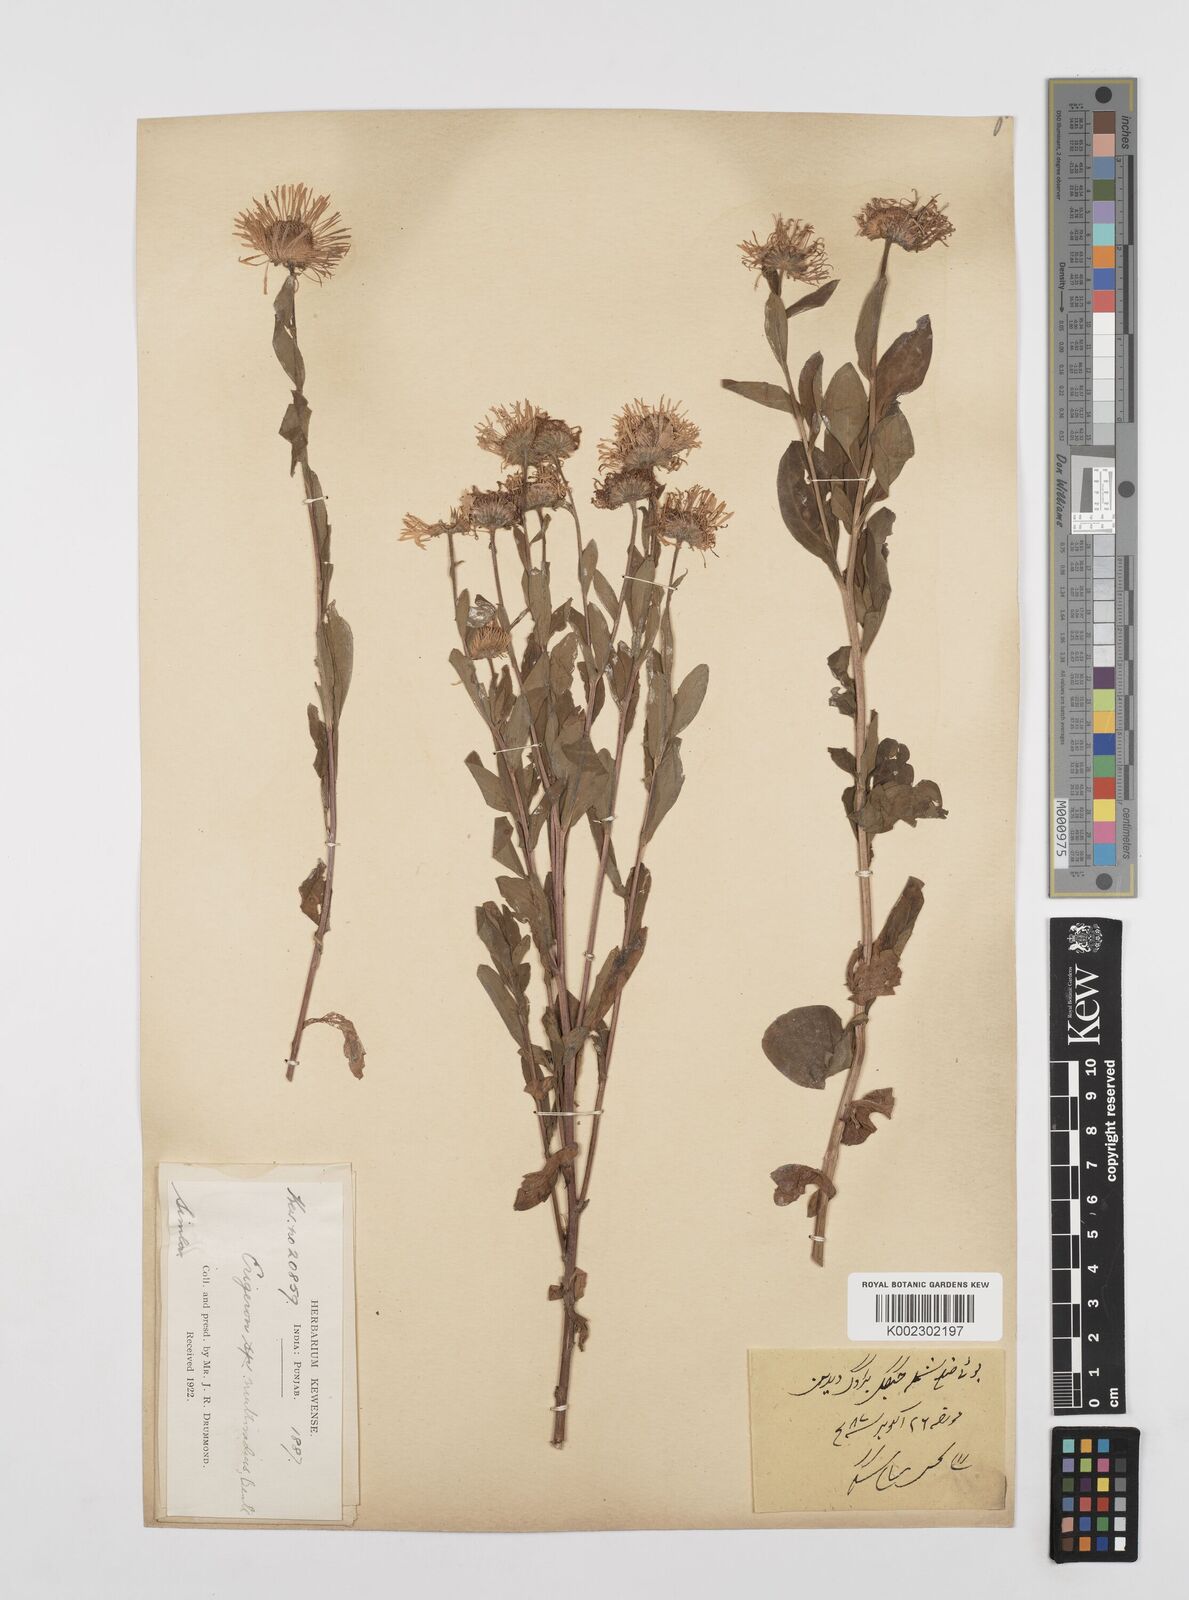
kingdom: Plantae
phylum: Tracheophyta
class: Magnoliopsida
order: Asterales
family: Asteraceae
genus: Erigeron
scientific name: Erigeron multiradiatus
